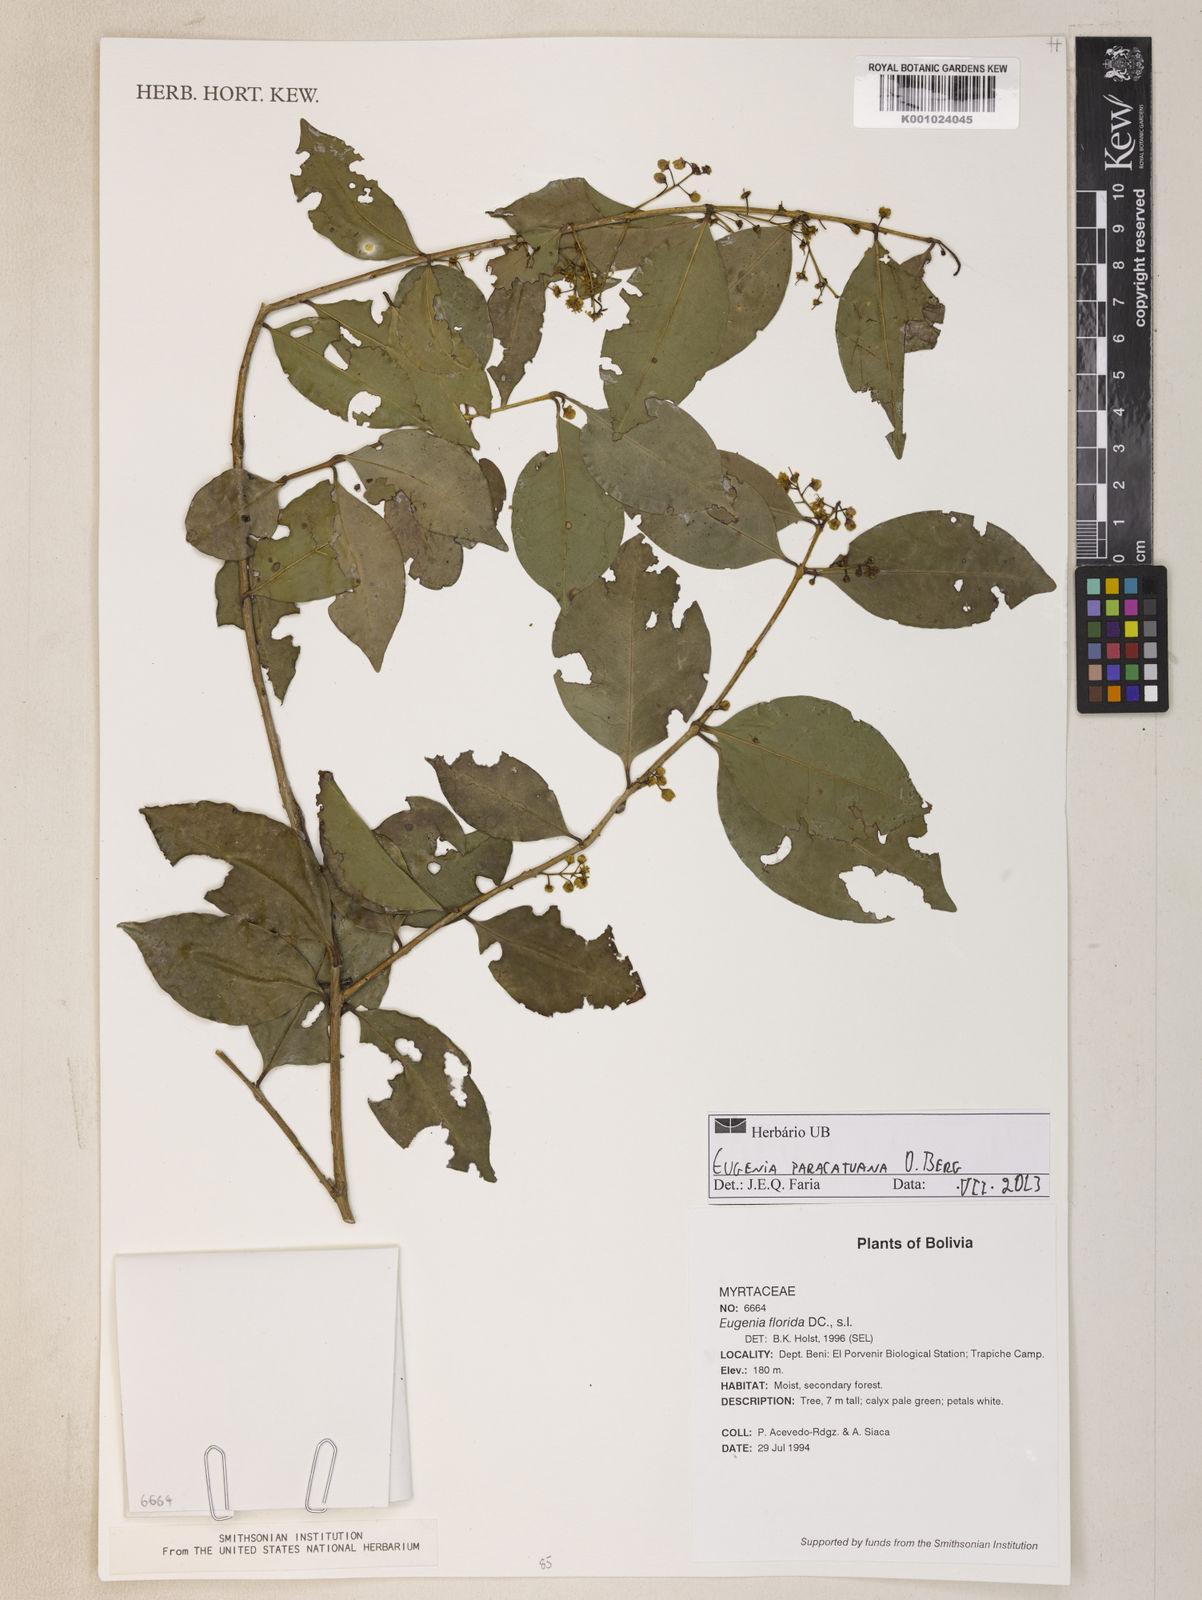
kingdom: Plantae
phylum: Tracheophyta
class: Magnoliopsida
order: Myrtales
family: Myrtaceae
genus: Eugenia
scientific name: Eugenia moraviana
